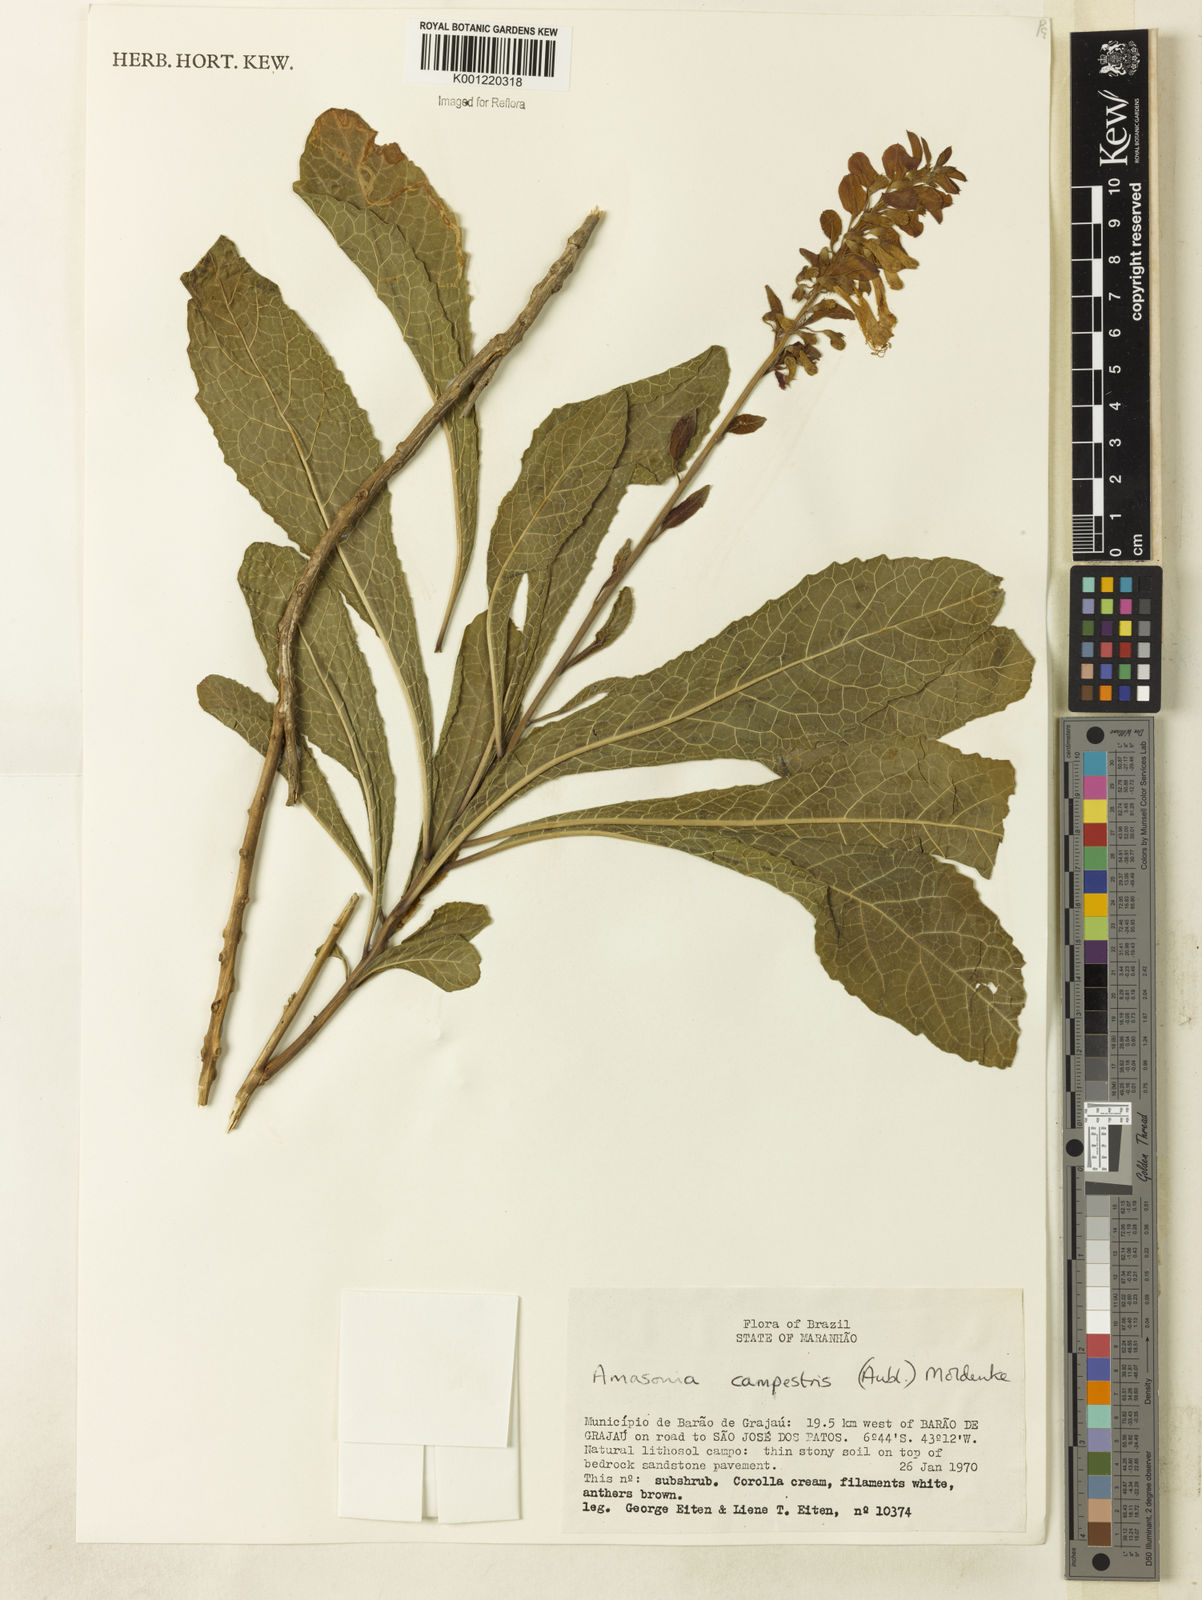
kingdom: Plantae
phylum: Tracheophyta
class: Magnoliopsida
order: Lamiales
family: Lamiaceae
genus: Amasonia
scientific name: Amasonia campestris
